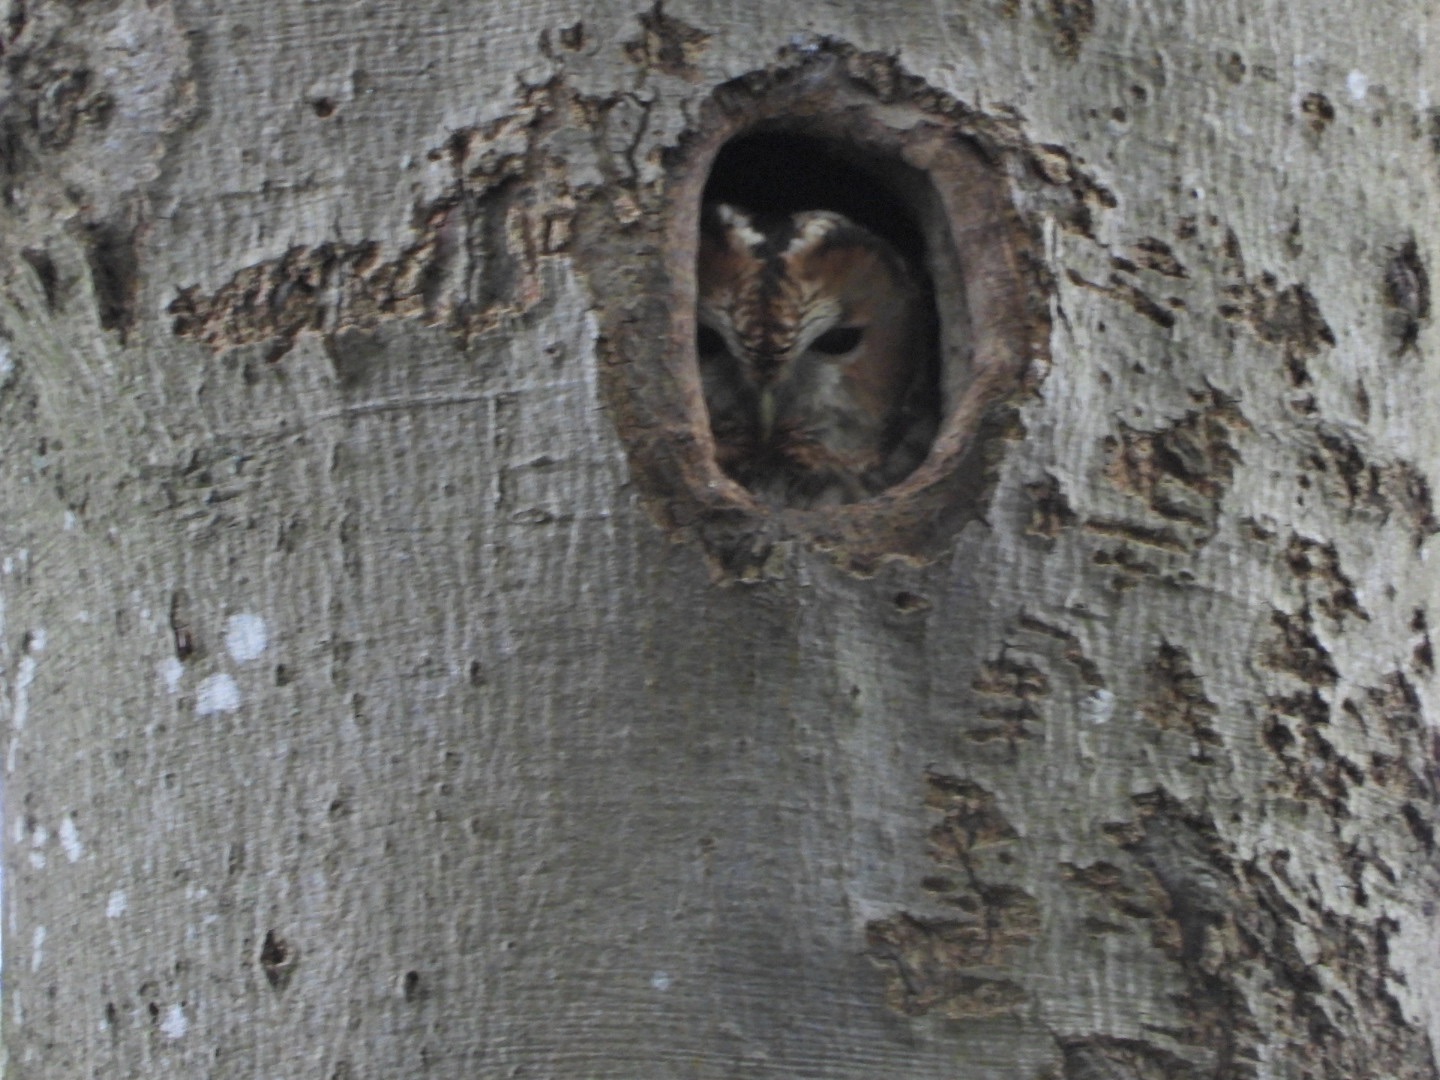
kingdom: Animalia
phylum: Chordata
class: Aves
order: Strigiformes
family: Strigidae
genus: Strix
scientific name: Strix aluco
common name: Natugle
